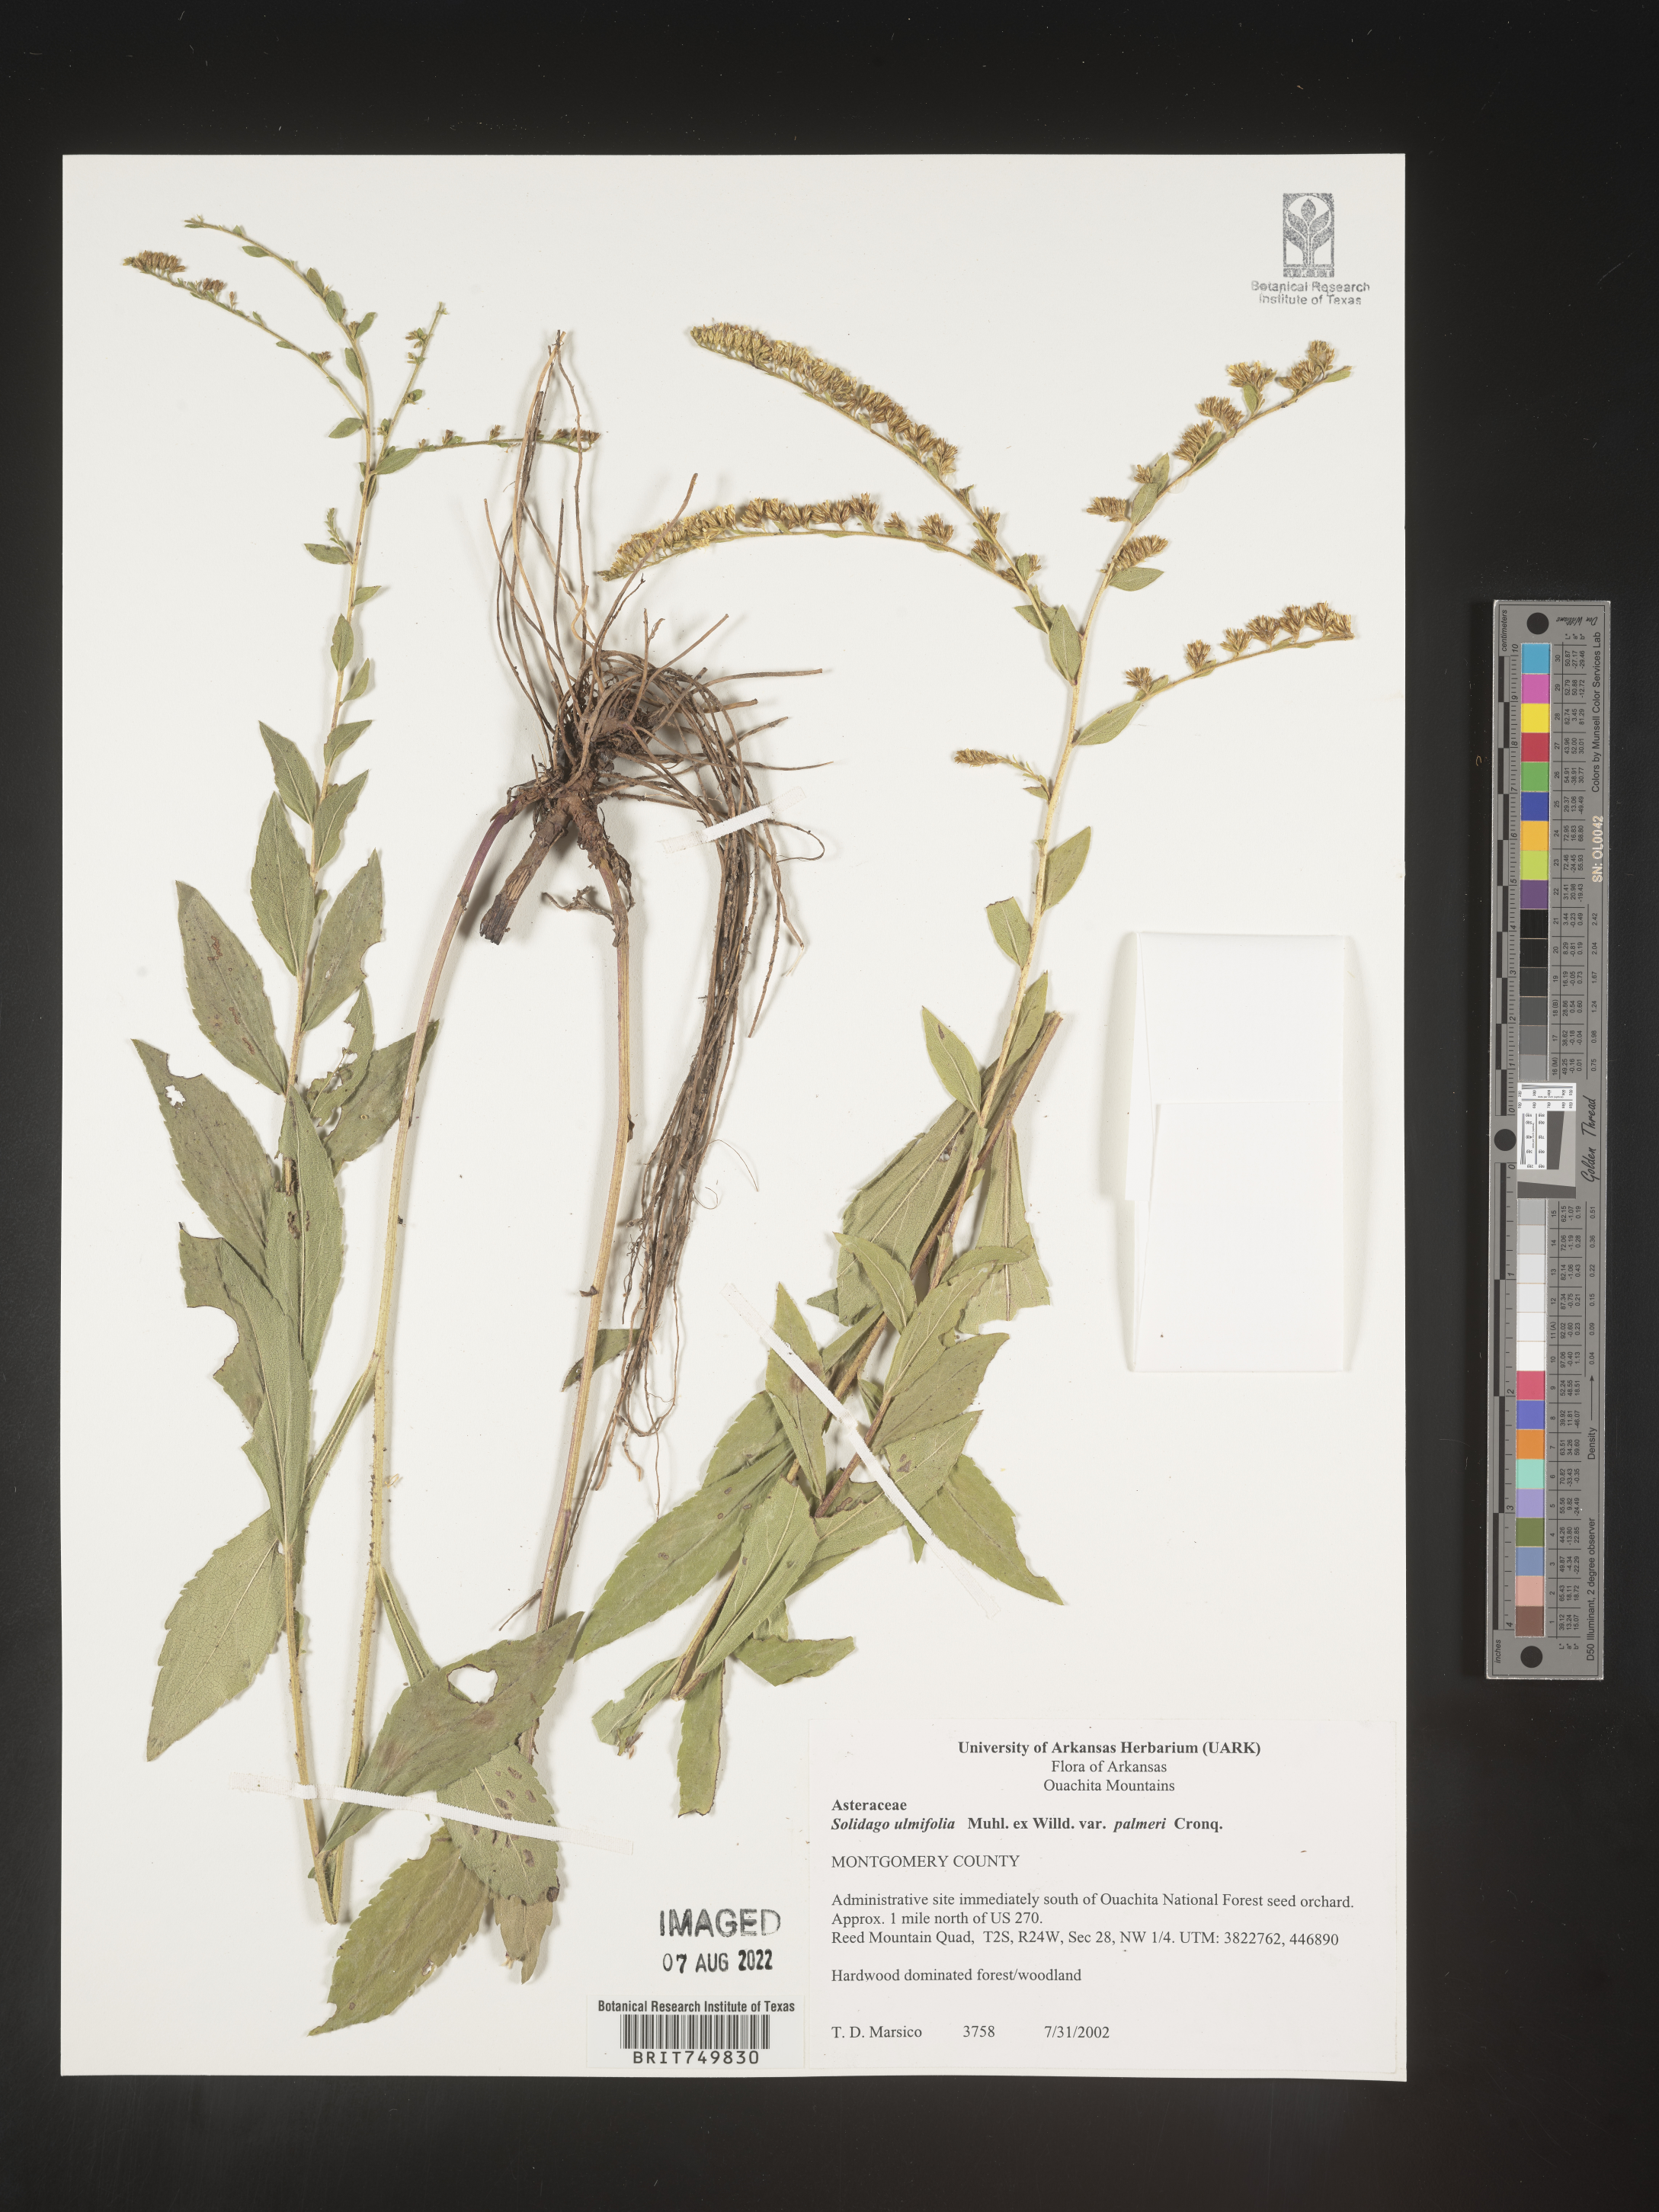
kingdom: Plantae
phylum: Tracheophyta
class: Magnoliopsida
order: Asterales
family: Asteraceae
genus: Solidago
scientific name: Solidago ulmifolia
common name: Elm-leaf goldenrod
